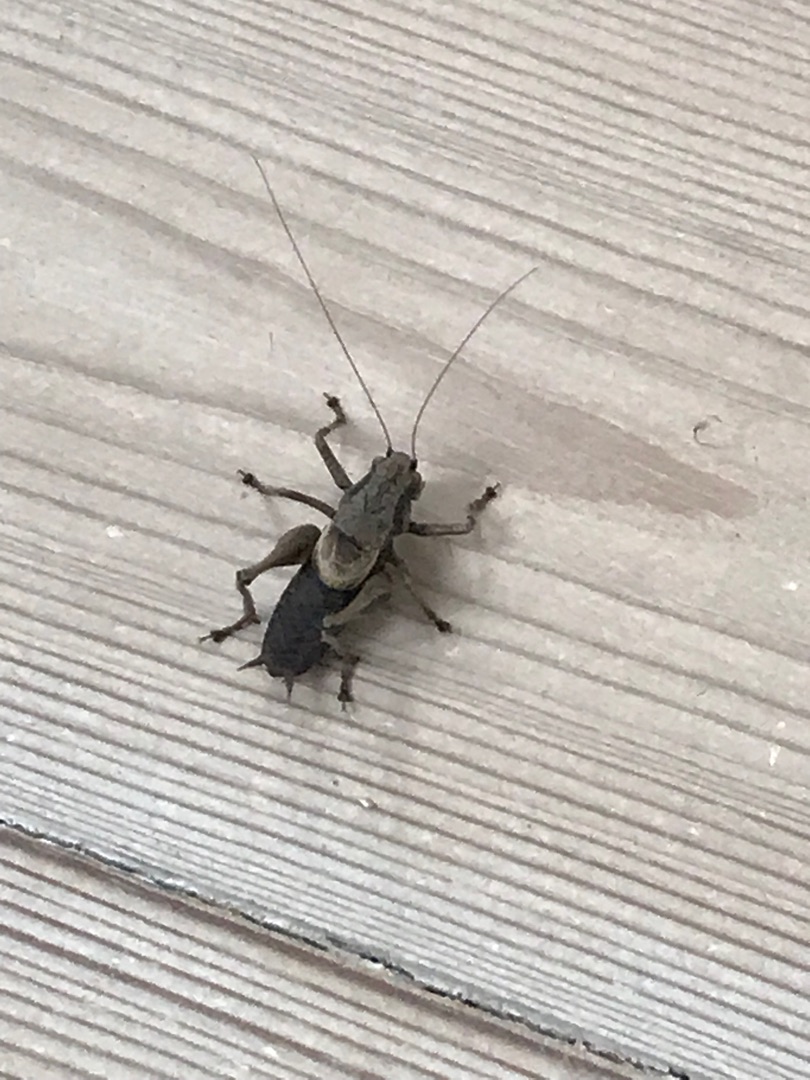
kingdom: Animalia
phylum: Arthropoda
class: Insecta
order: Orthoptera
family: Tettigoniidae
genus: Pholidoptera
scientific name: Pholidoptera griseoaptera
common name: Buskgræshoppe
